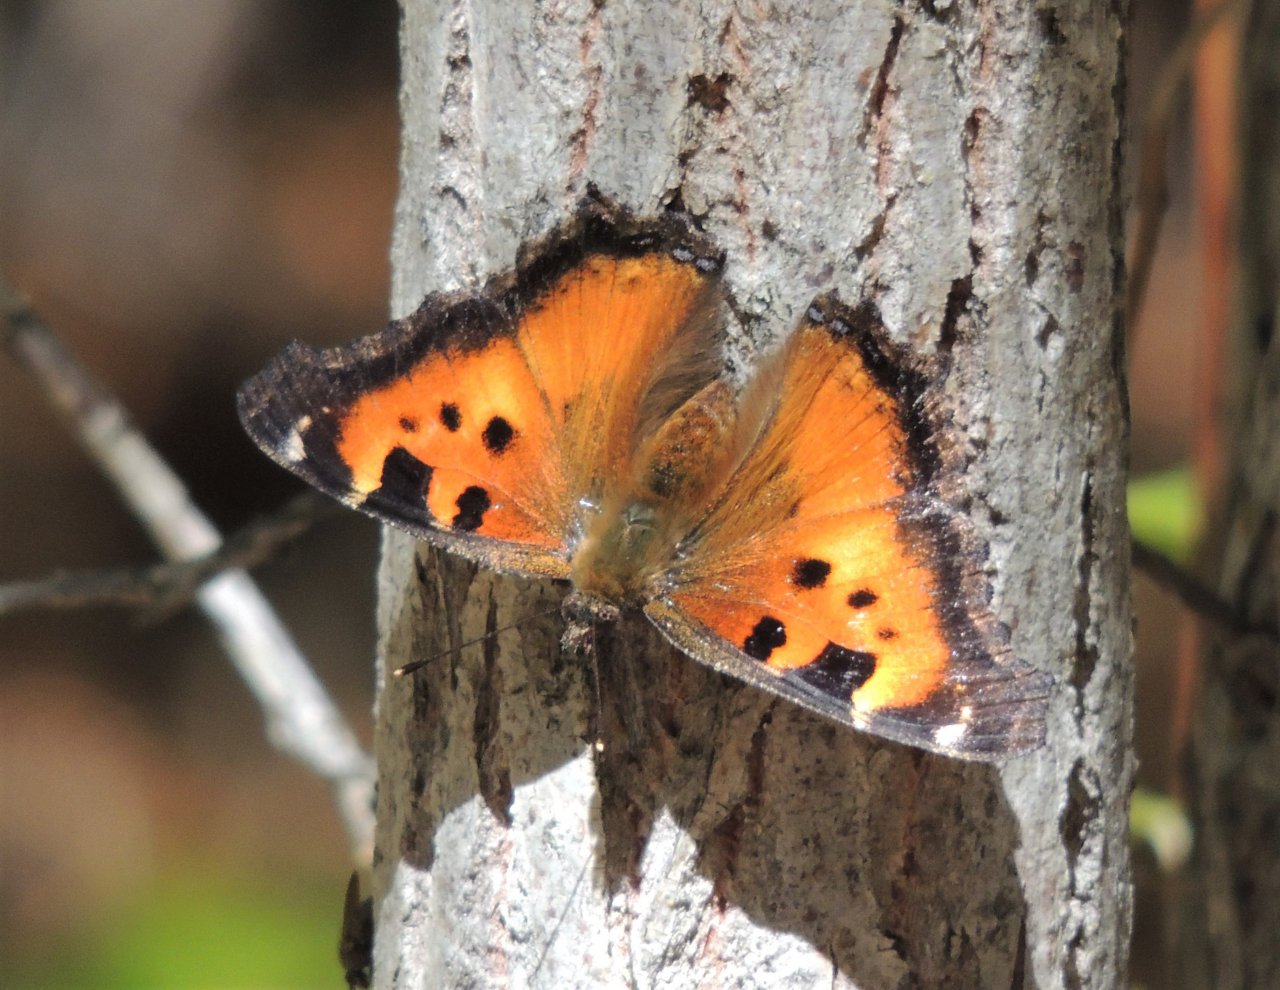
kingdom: Animalia
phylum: Arthropoda
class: Insecta
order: Lepidoptera
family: Nymphalidae
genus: Nymphalis
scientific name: Nymphalis californica
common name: California Tortoiseshell
